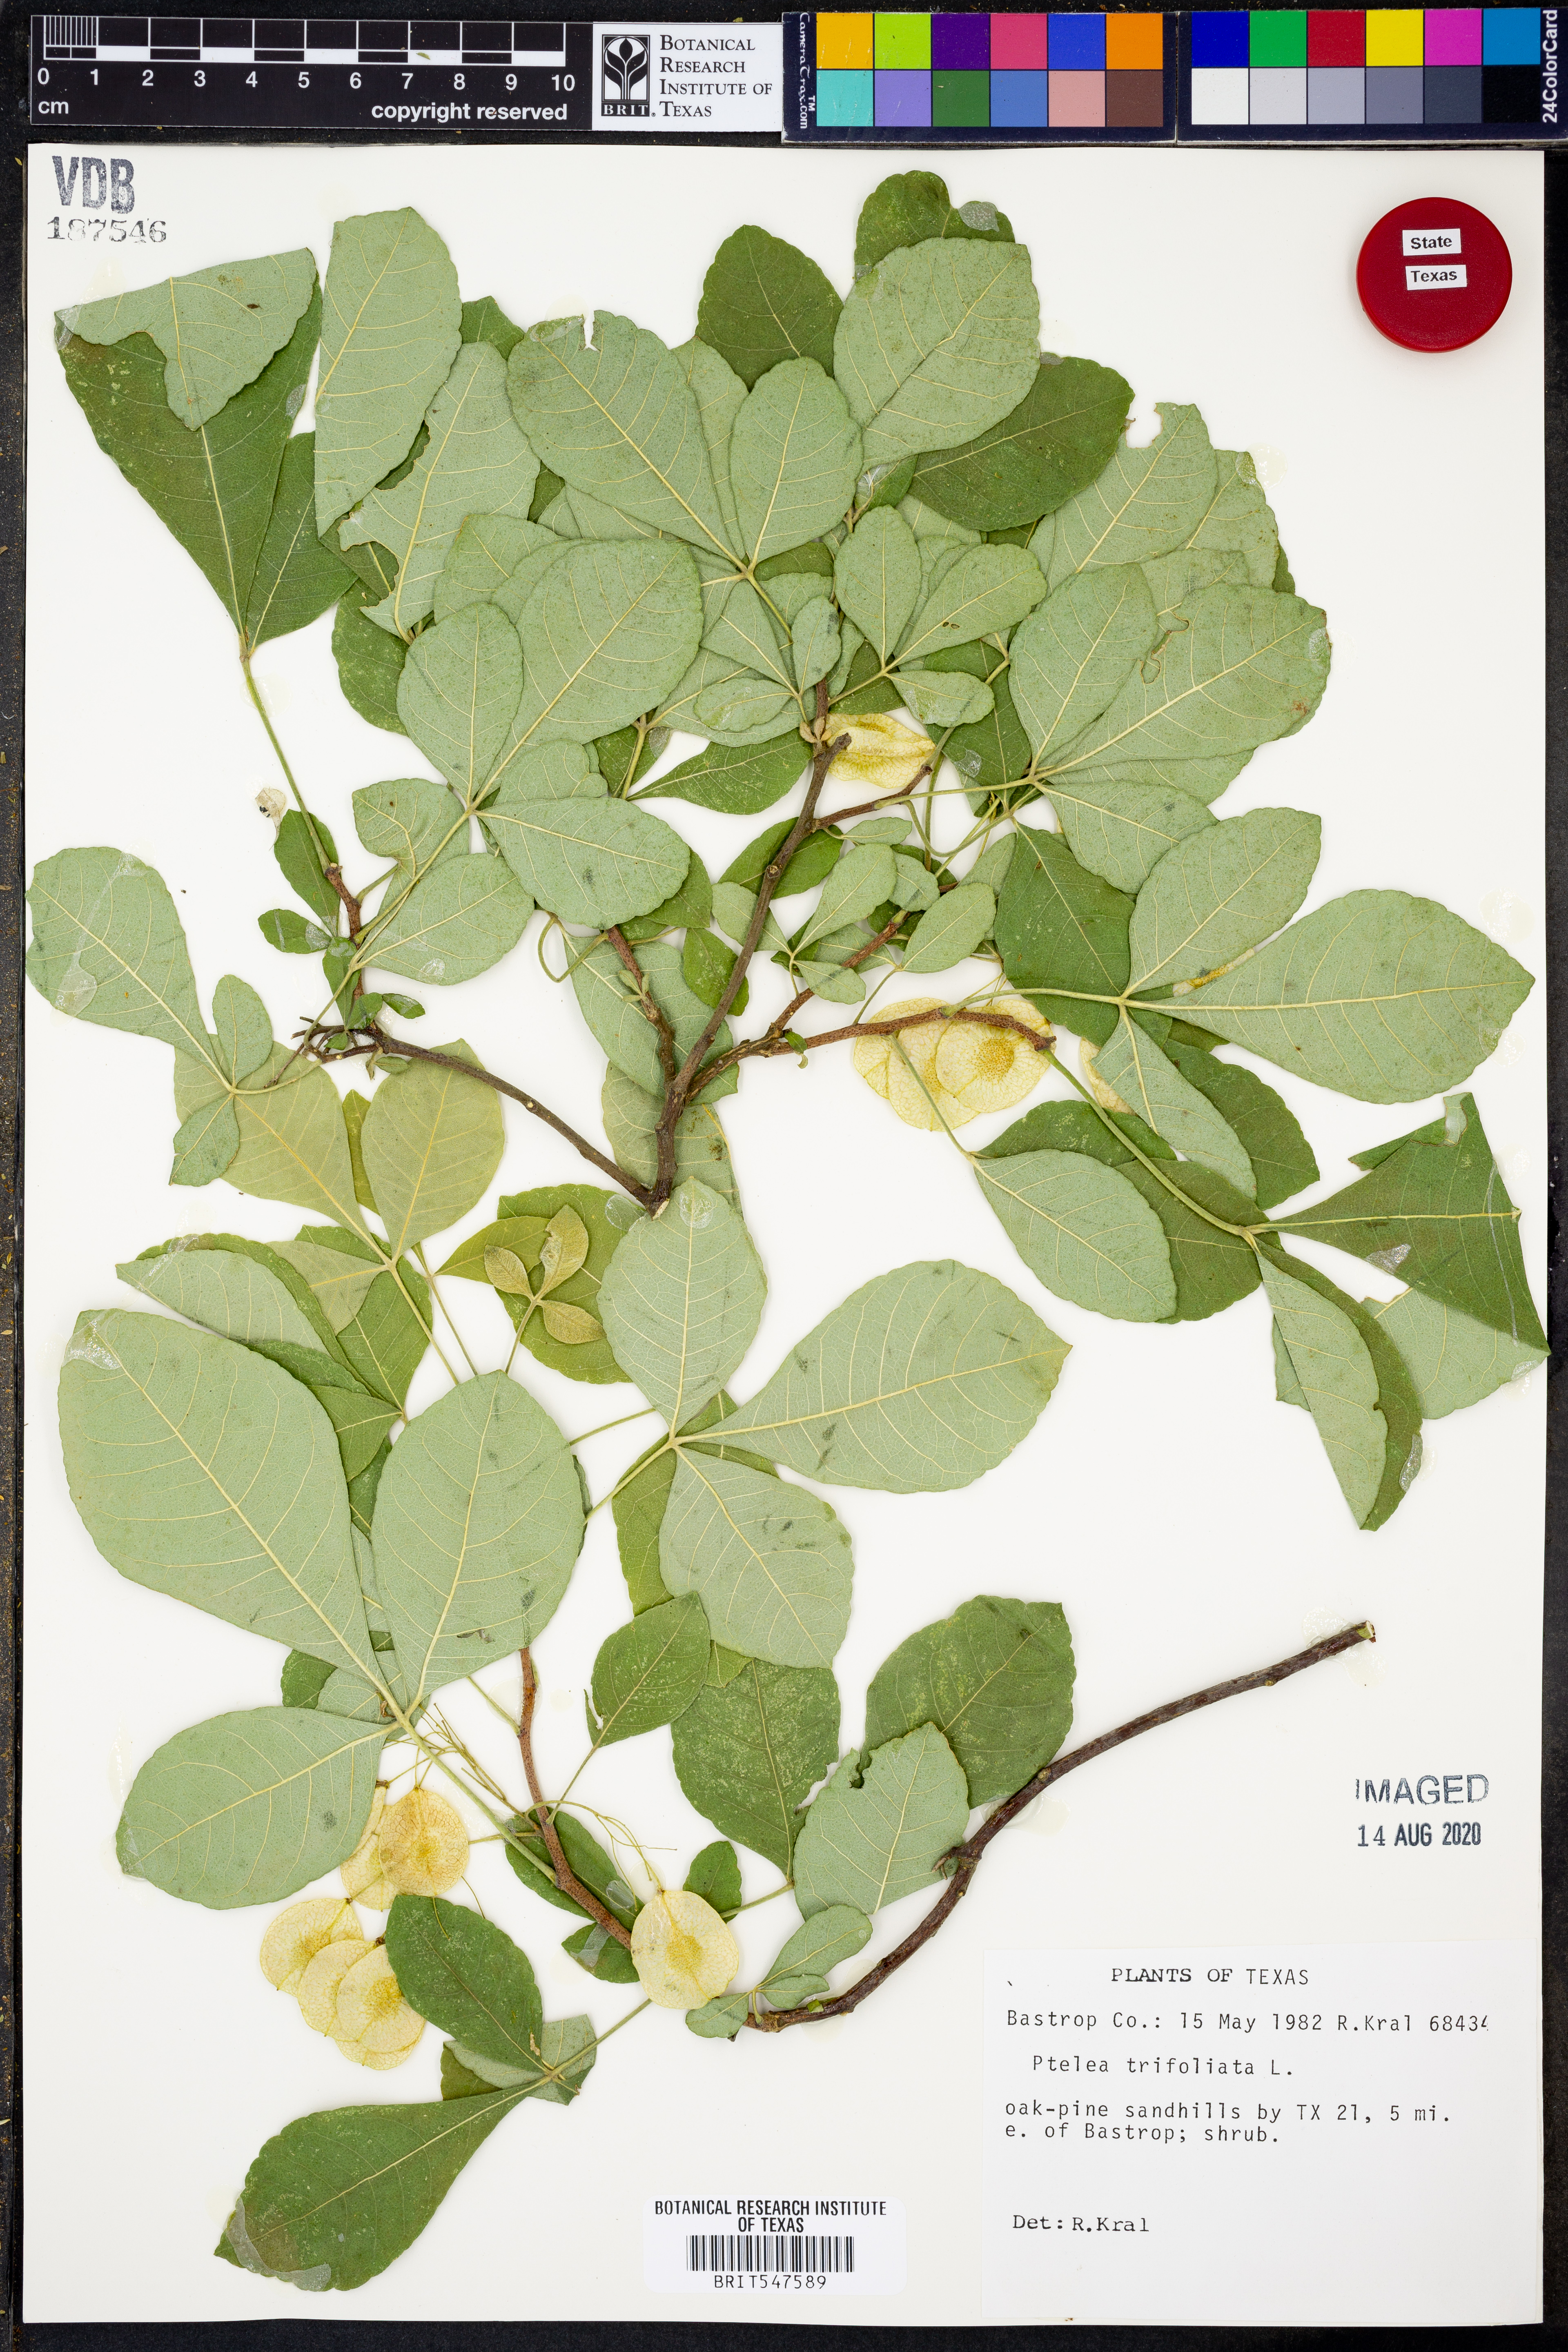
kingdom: Plantae
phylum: Tracheophyta
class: Magnoliopsida
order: Sapindales
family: Rutaceae
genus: Ptelea
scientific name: Ptelea trifoliata
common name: Common hop-tree
